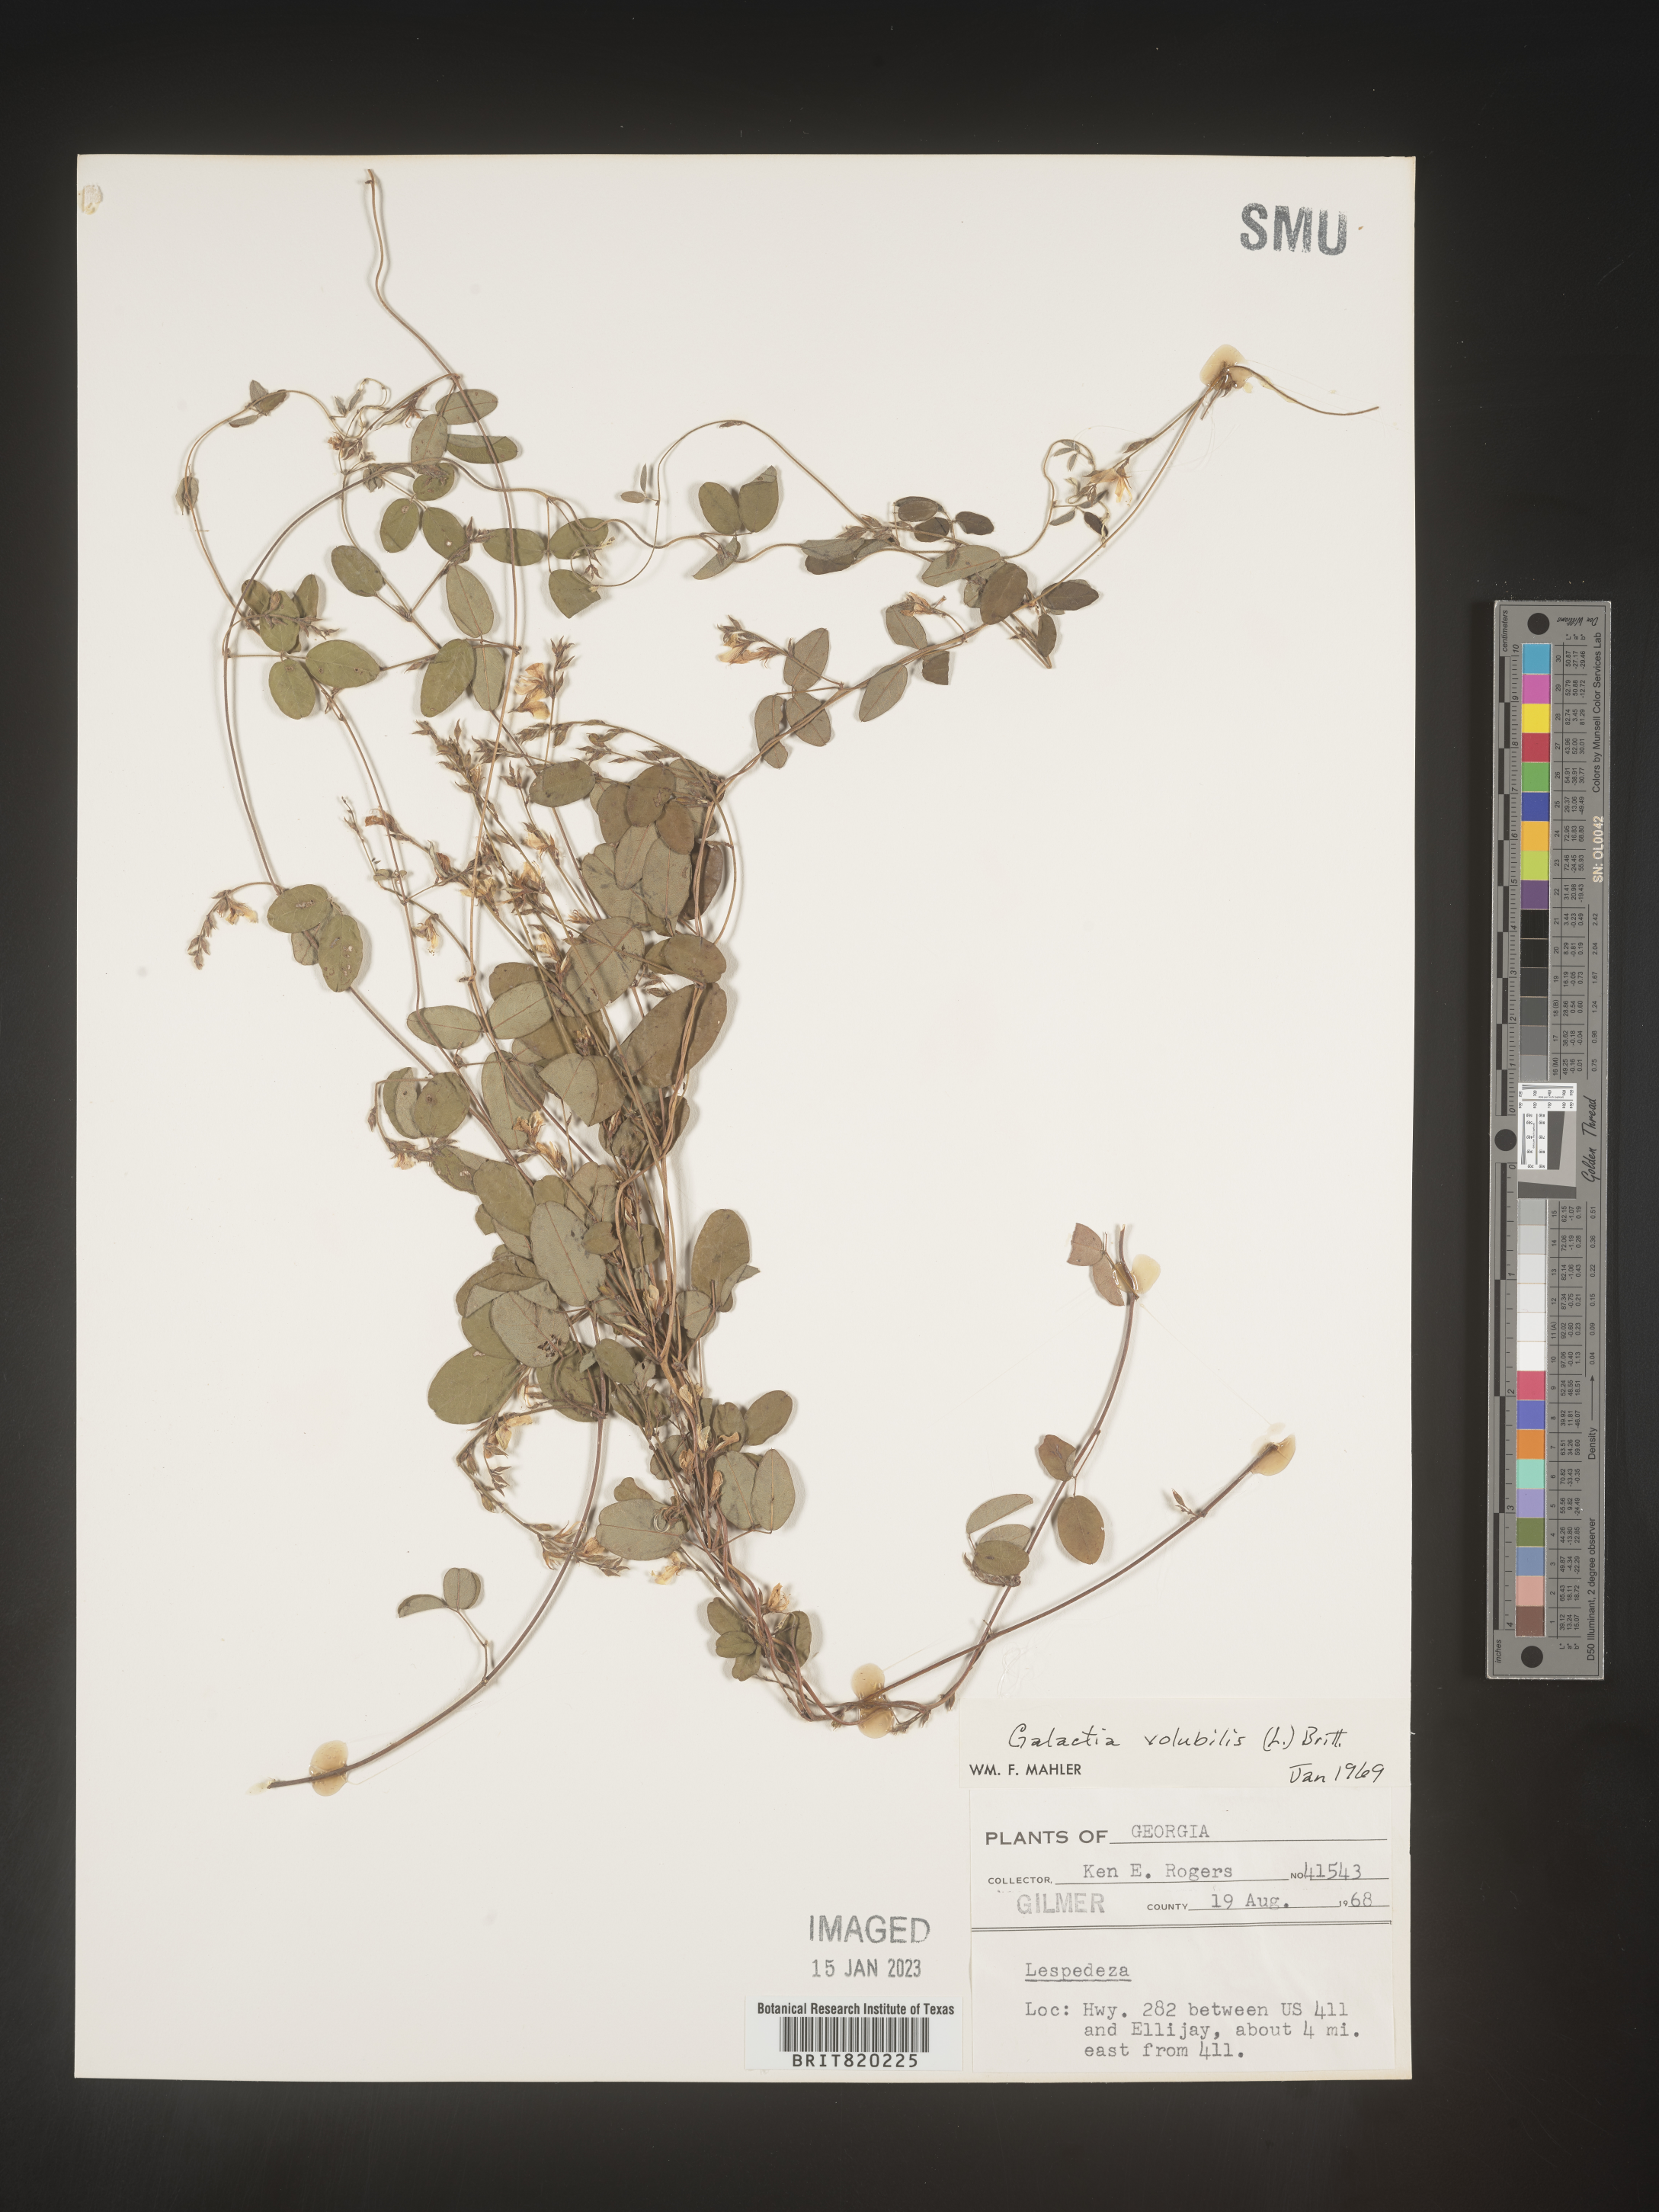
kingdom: Plantae
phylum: Tracheophyta
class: Magnoliopsida
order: Fabales
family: Fabaceae
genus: Galactia
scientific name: Galactia volubilis
